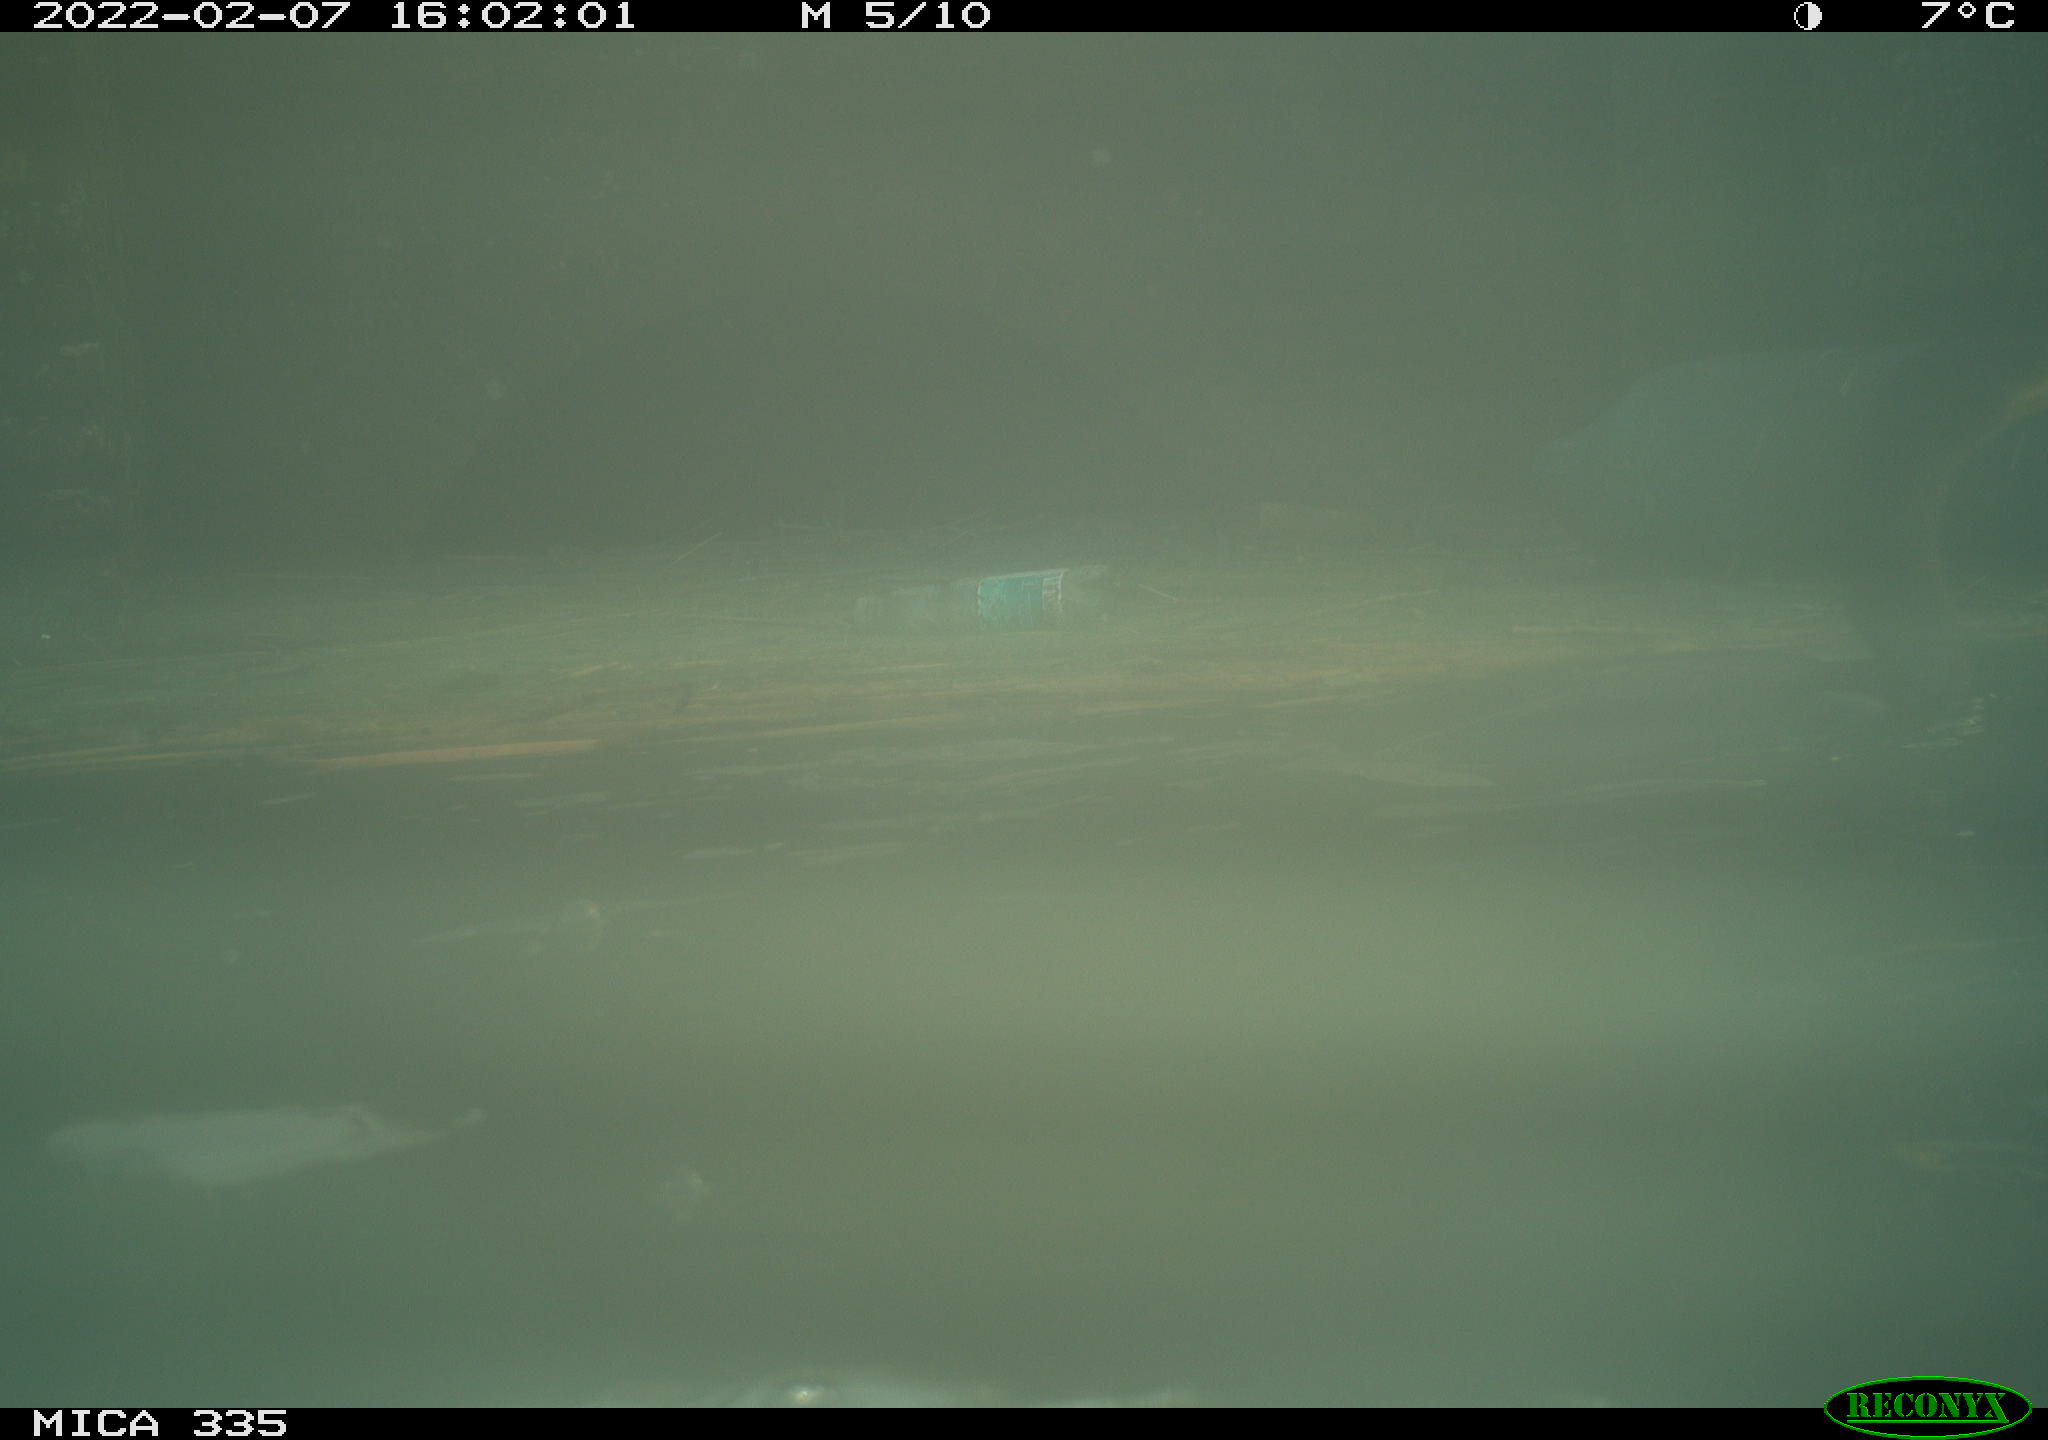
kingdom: Animalia
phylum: Chordata
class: Aves
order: Suliformes
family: Phalacrocoracidae
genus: Phalacrocorax
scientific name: Phalacrocorax carbo
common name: Great cormorant
